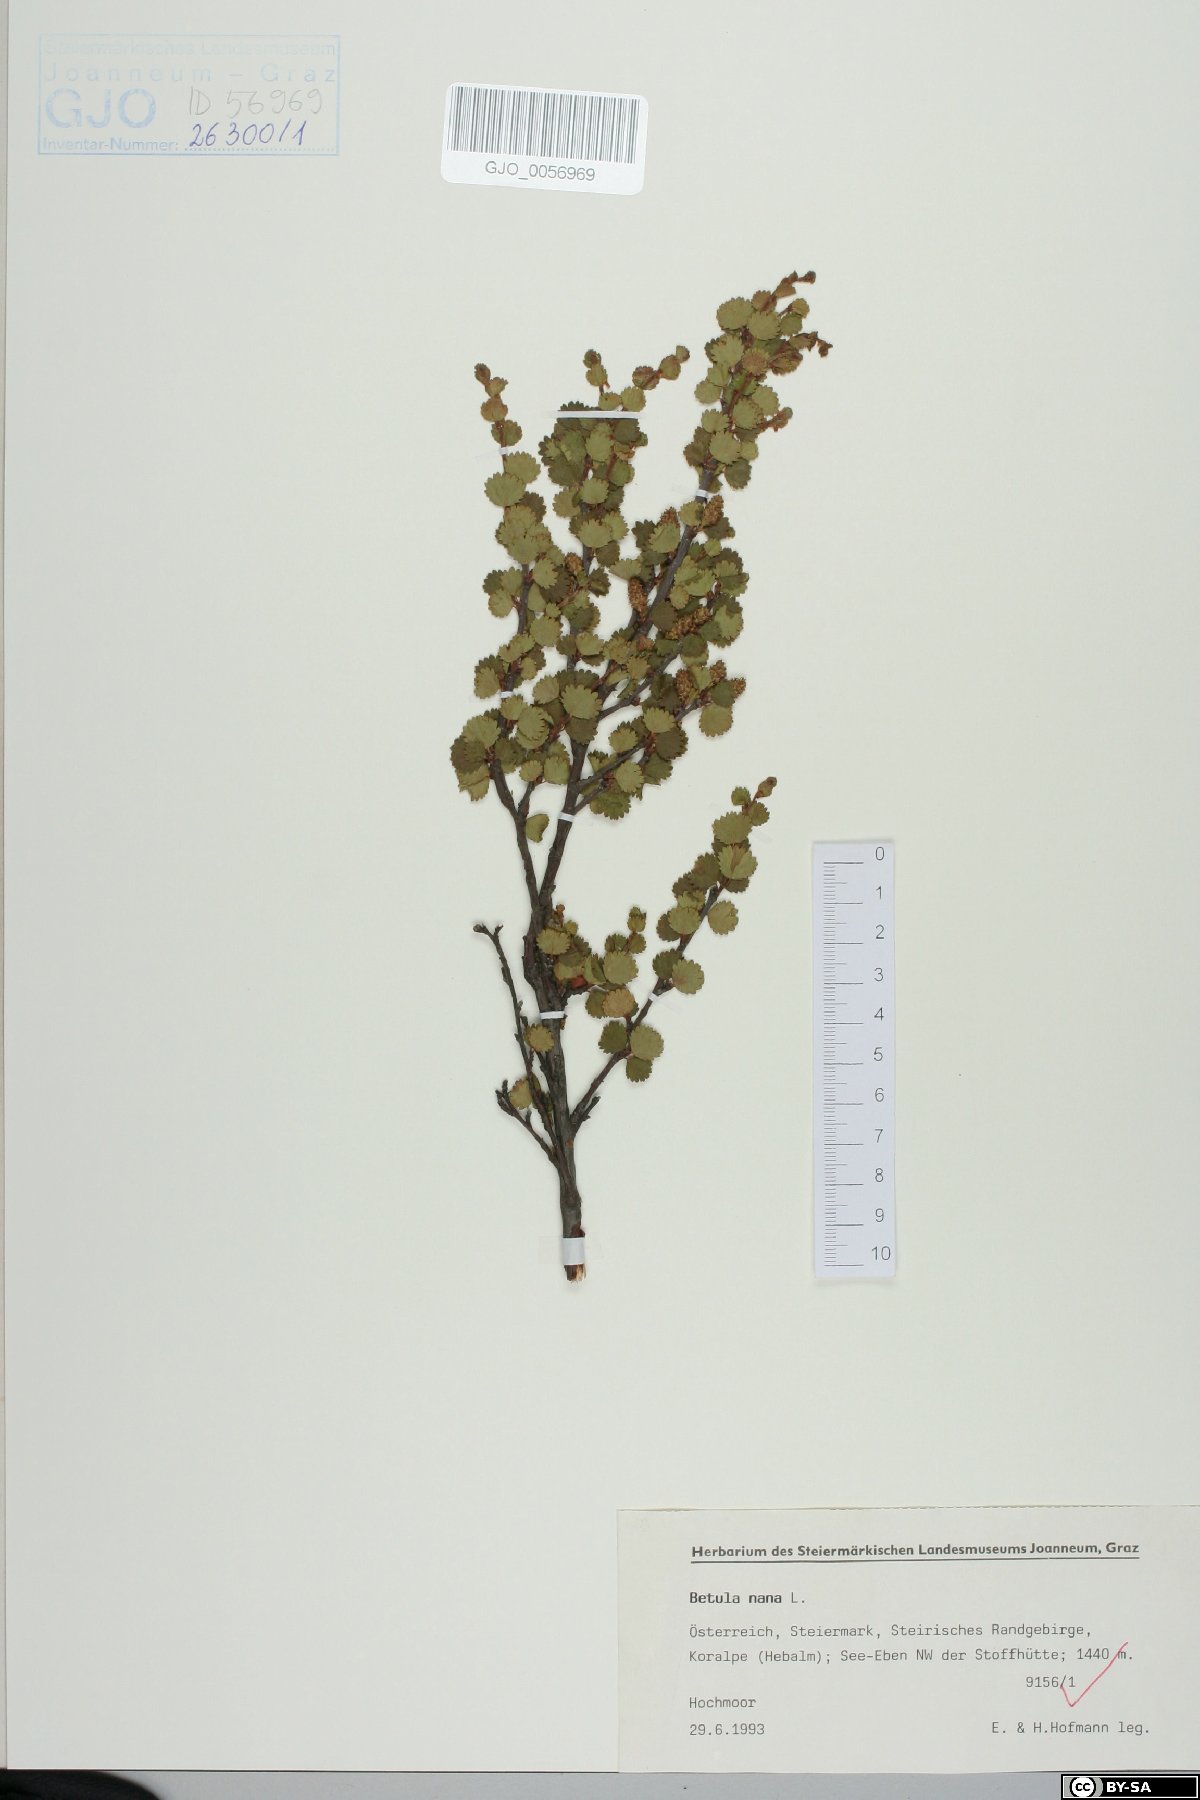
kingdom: Plantae
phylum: Tracheophyta
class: Magnoliopsida
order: Fagales
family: Betulaceae
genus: Betula
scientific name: Betula nana
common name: Arctic dwarf birch
